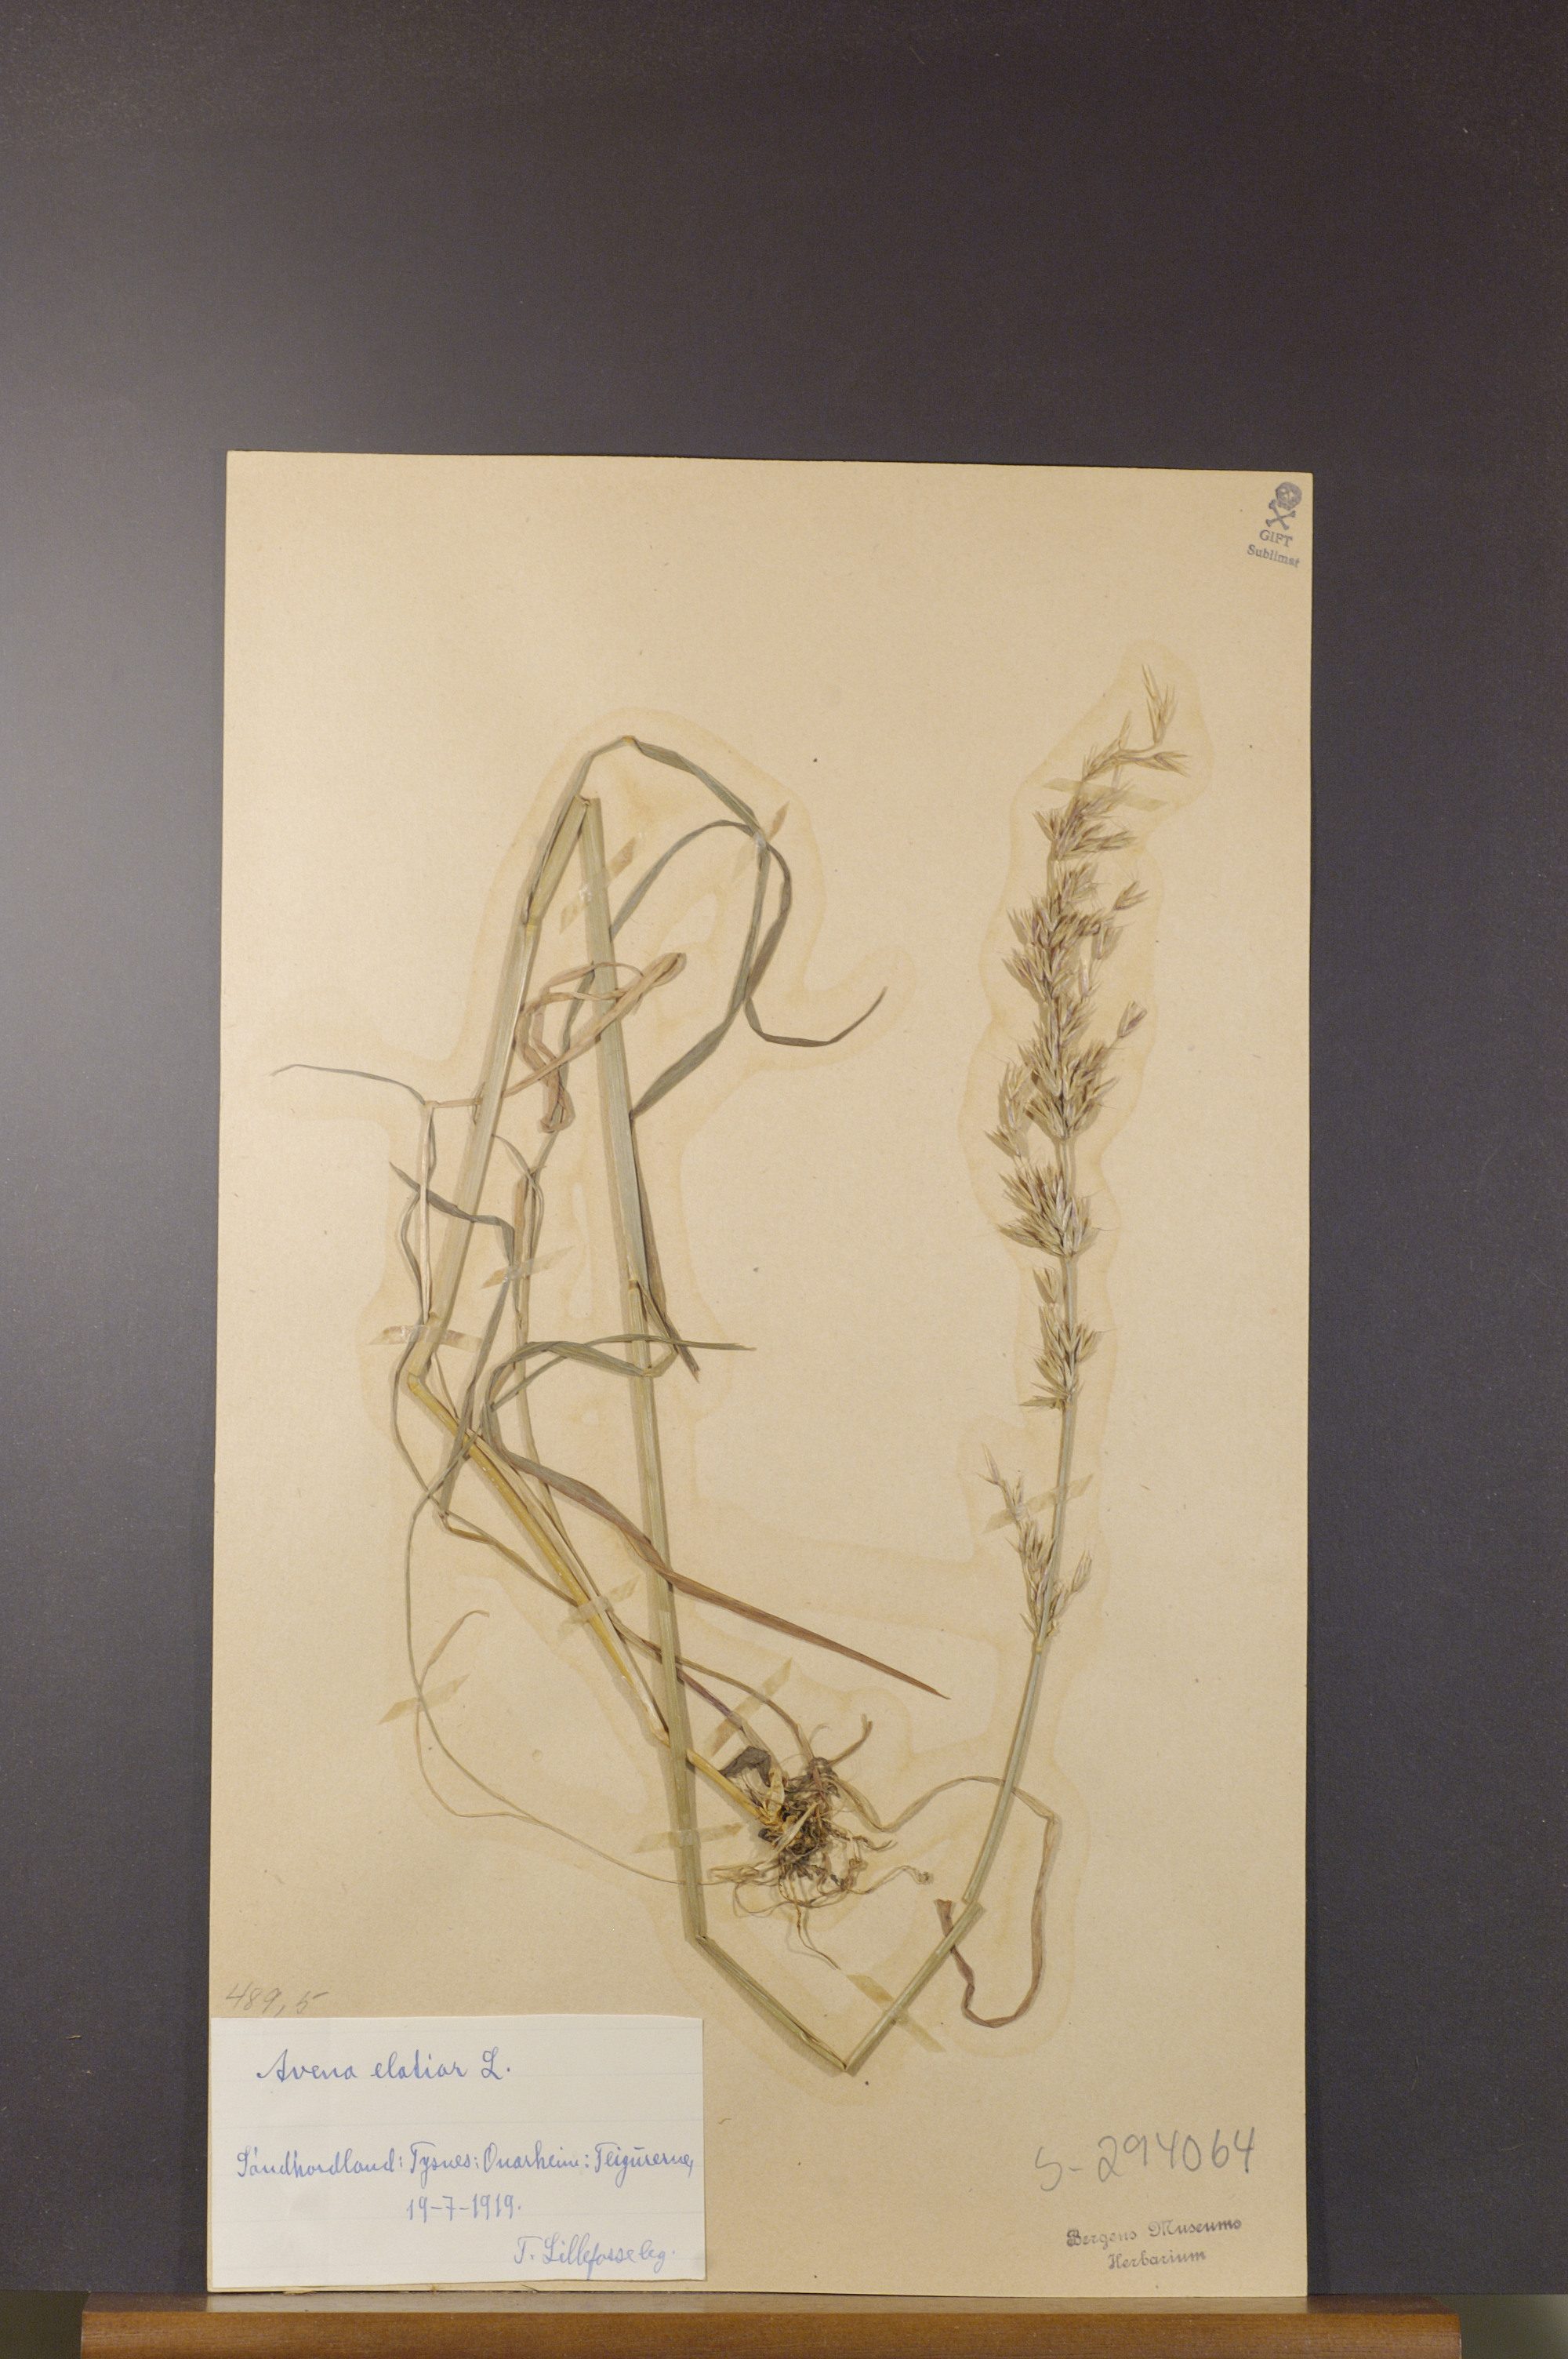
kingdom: Plantae
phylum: Tracheophyta
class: Liliopsida
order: Poales
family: Poaceae
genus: Arrhenatherum
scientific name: Arrhenatherum elatius
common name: Tall oatgrass
